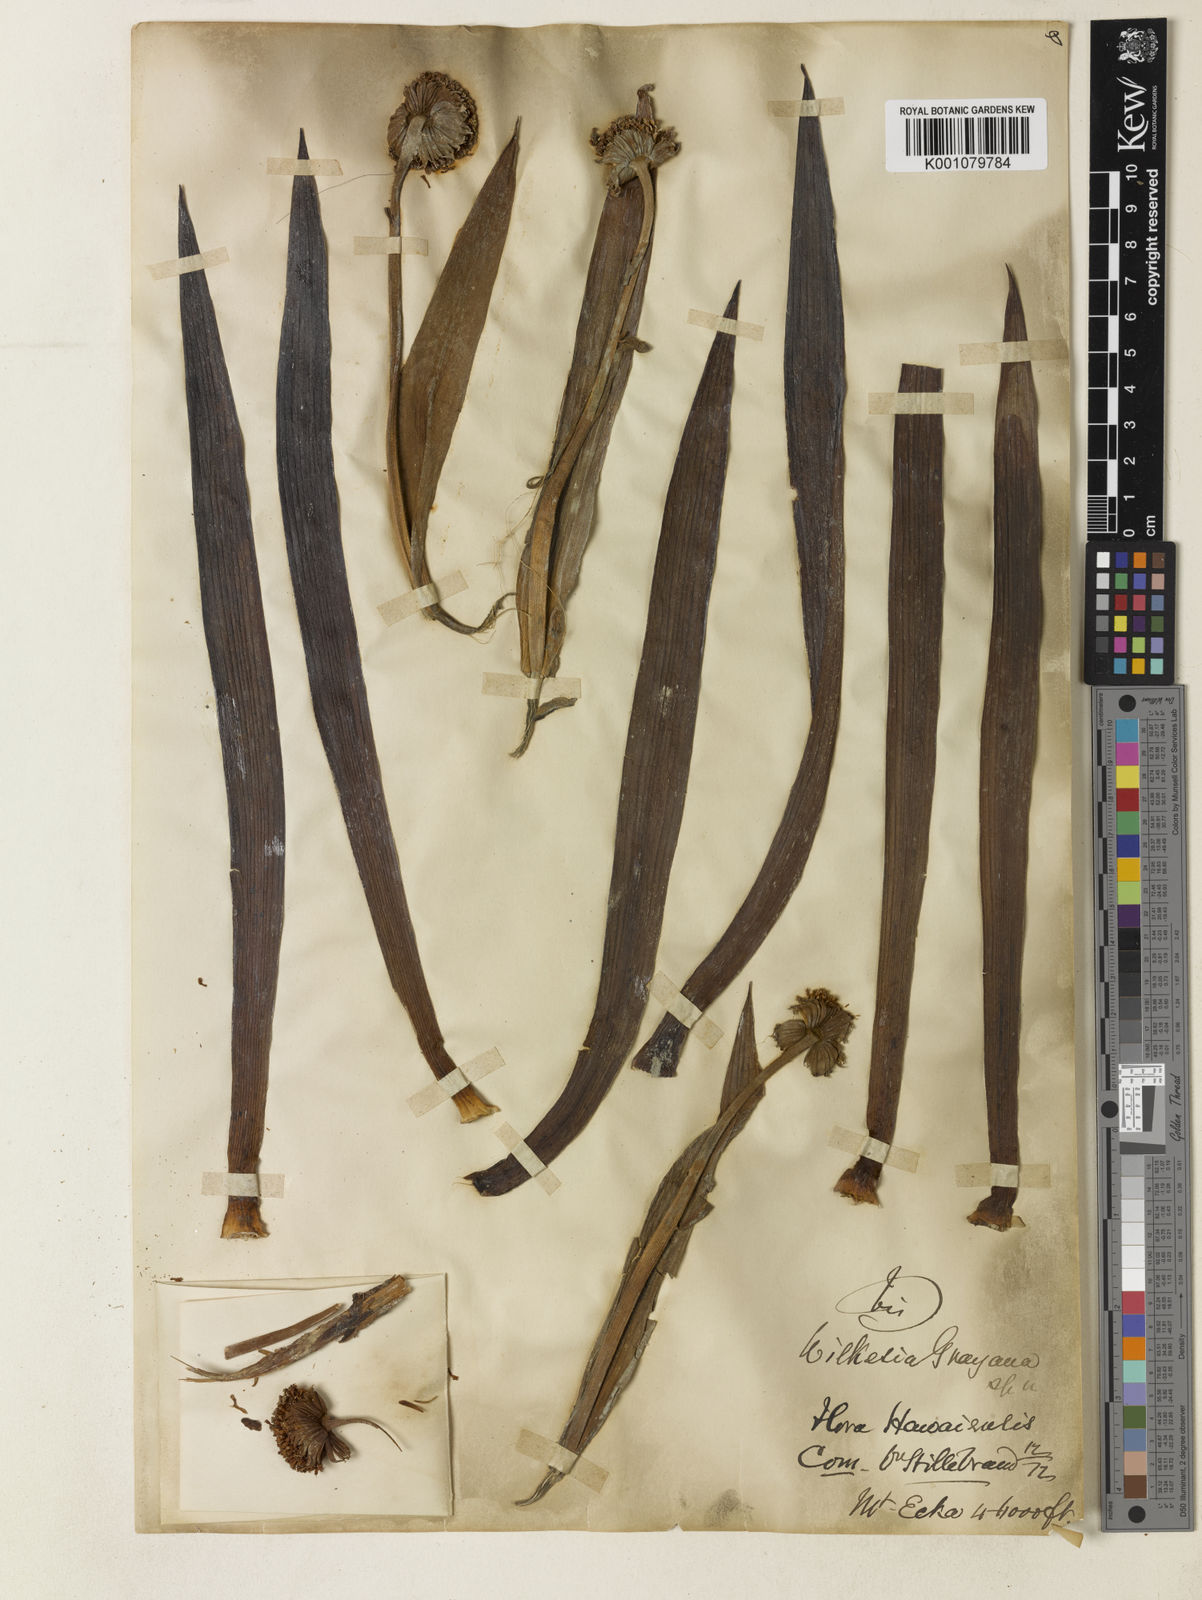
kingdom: Plantae
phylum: Tracheophyta
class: Magnoliopsida
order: Asterales
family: Asteraceae
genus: Argyroxiphium
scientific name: Argyroxiphium grayanum
